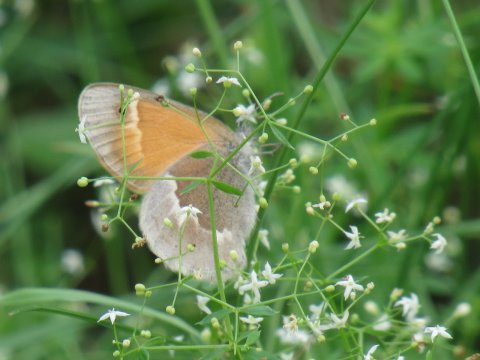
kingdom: Animalia
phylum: Arthropoda
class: Insecta
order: Lepidoptera
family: Nymphalidae
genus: Coenonympha
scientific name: Coenonympha tullia
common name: Large Heath
